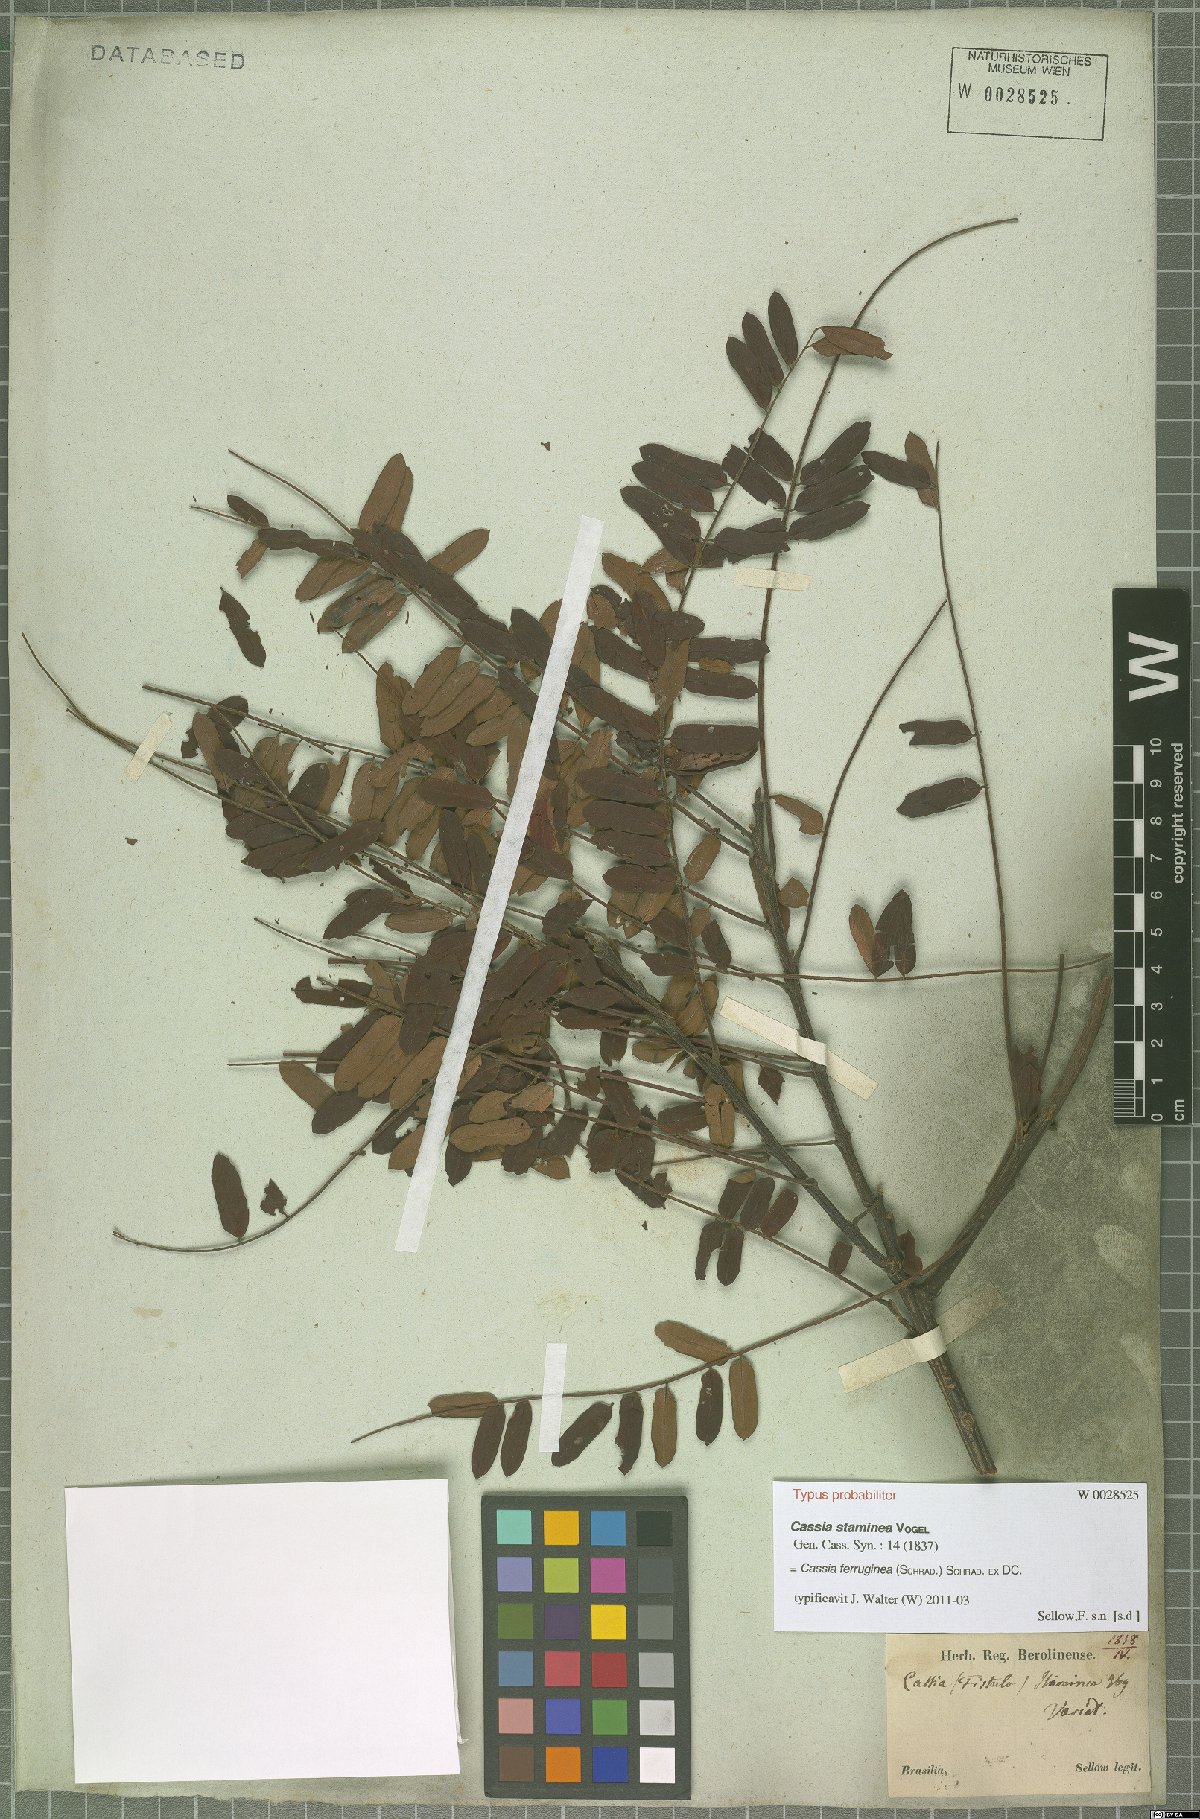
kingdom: Plantae
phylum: Tracheophyta
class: Magnoliopsida
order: Fabales
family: Fabaceae
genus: Cassia
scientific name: Cassia ferruginea
